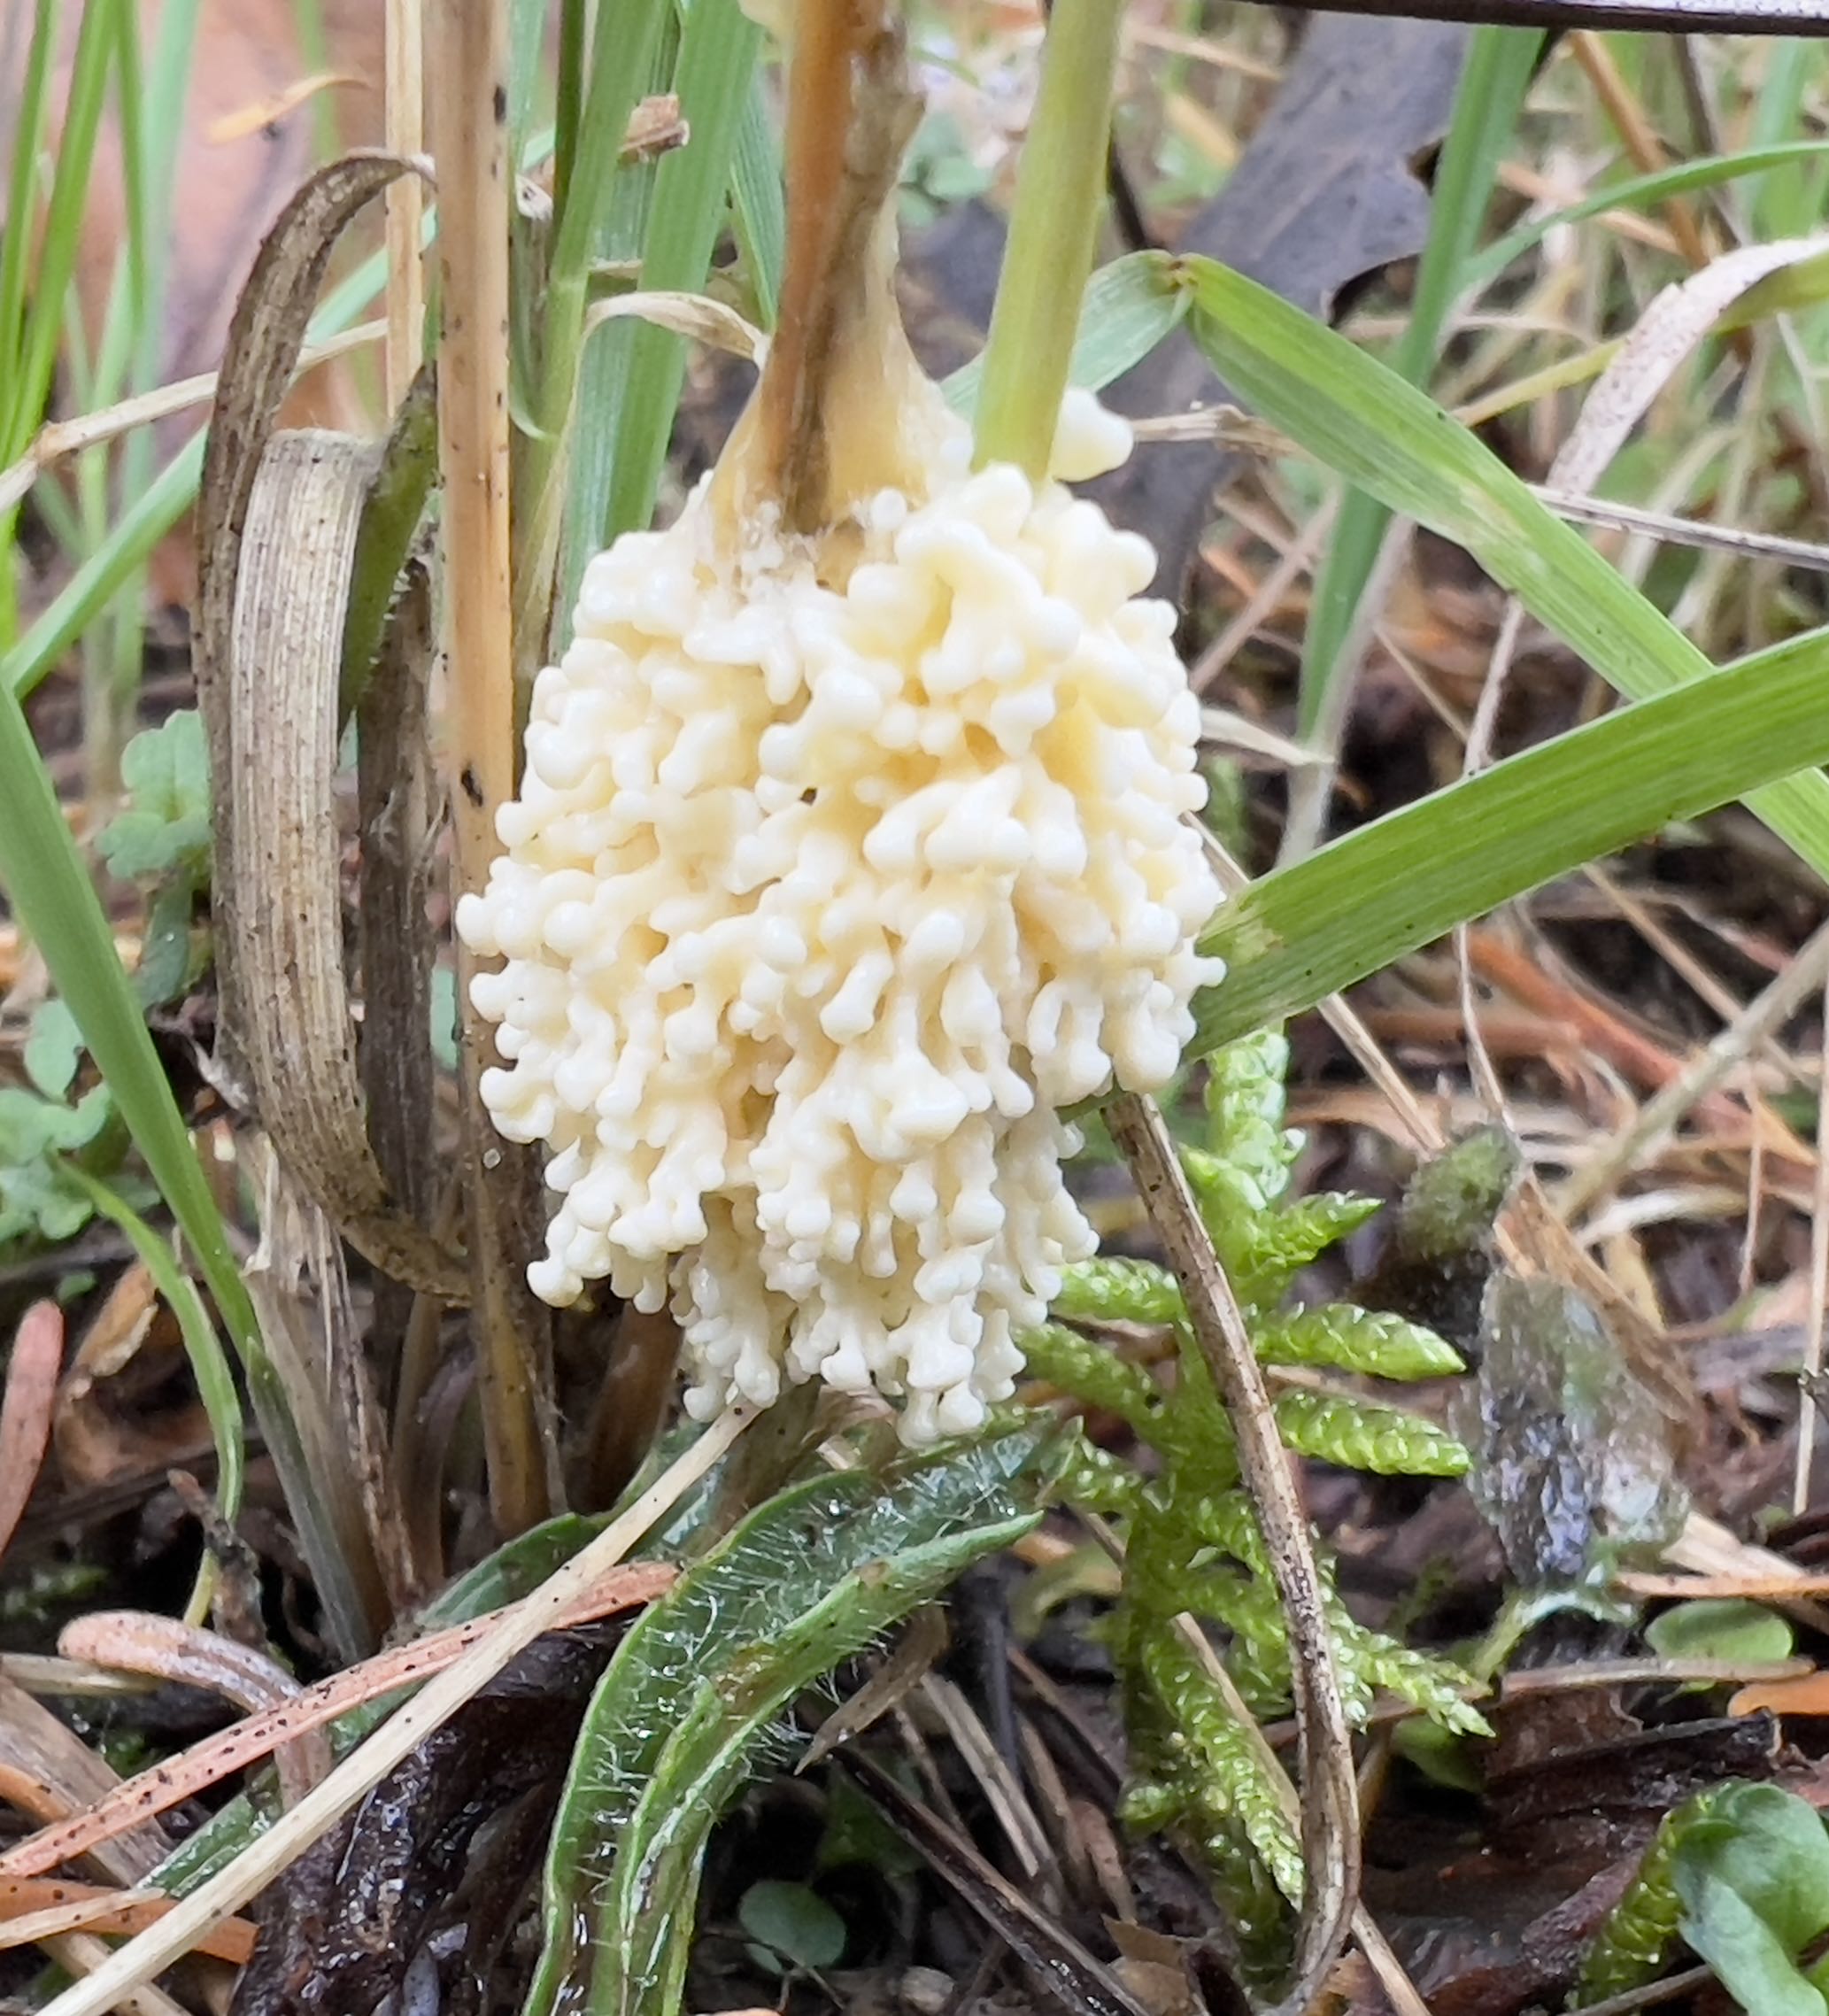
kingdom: Protozoa
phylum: Mycetozoa
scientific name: Mycetozoa
